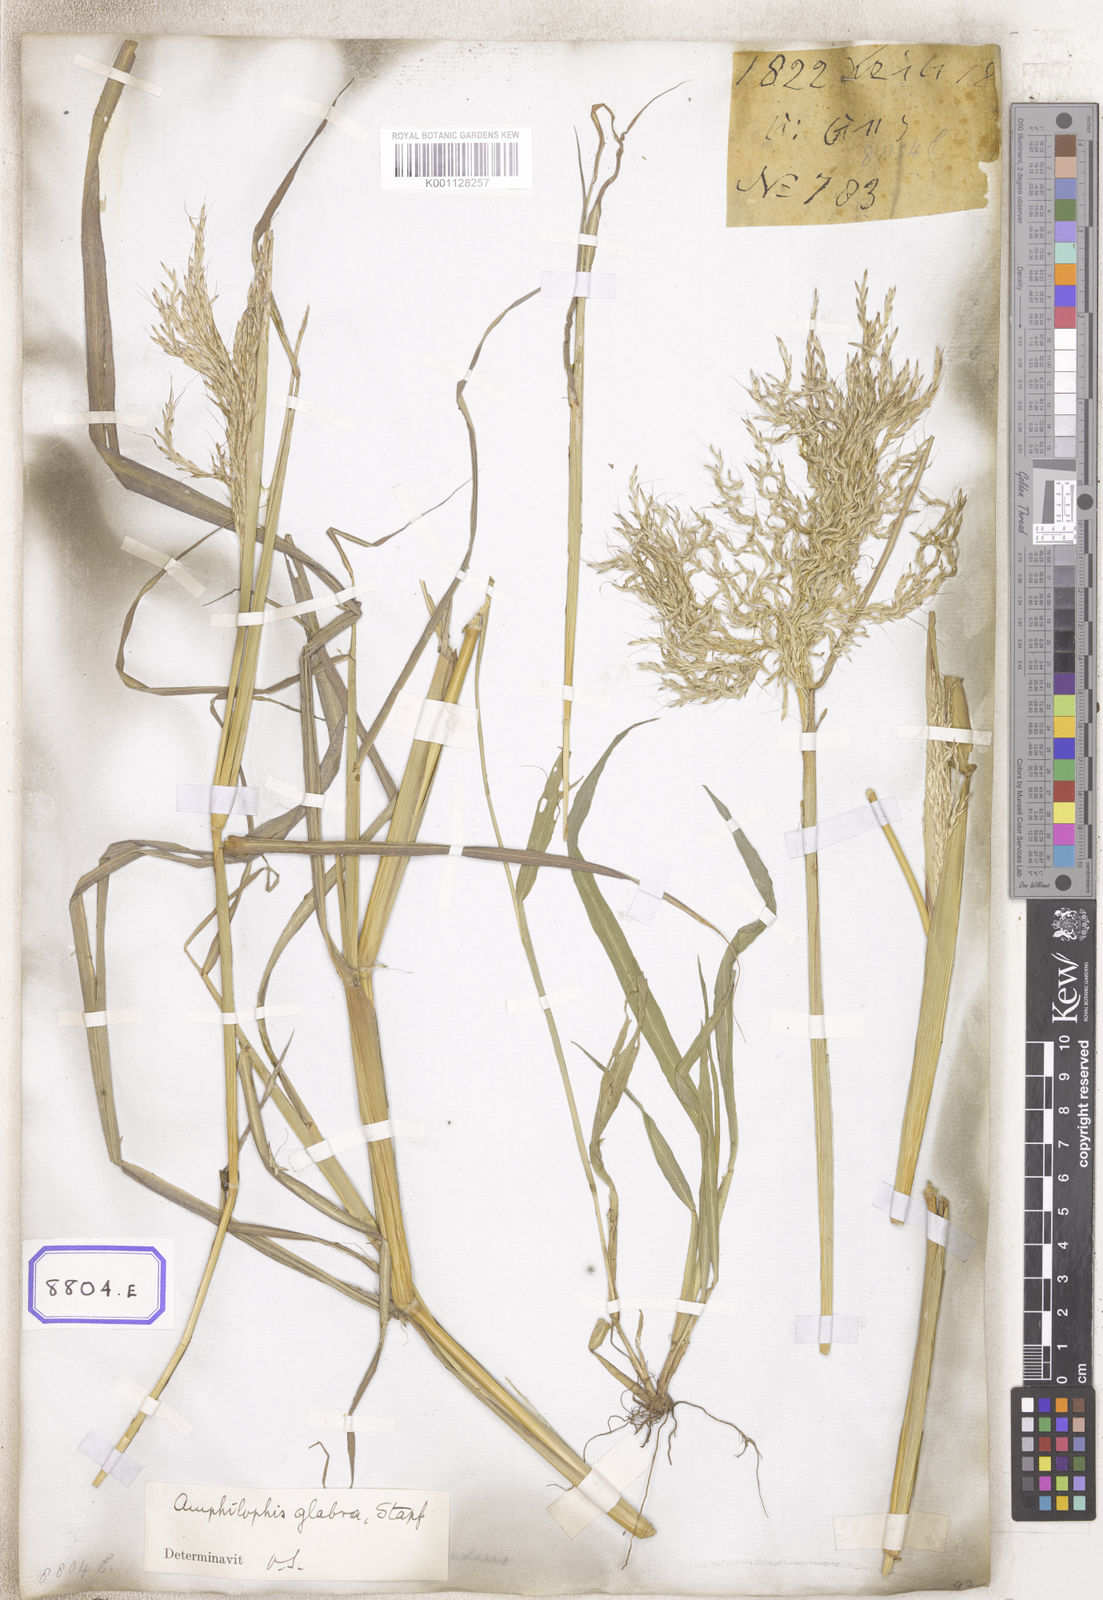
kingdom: Plantae
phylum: Tracheophyta
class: Liliopsida
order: Poales
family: Poaceae
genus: Andropogon
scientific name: Andropogon
